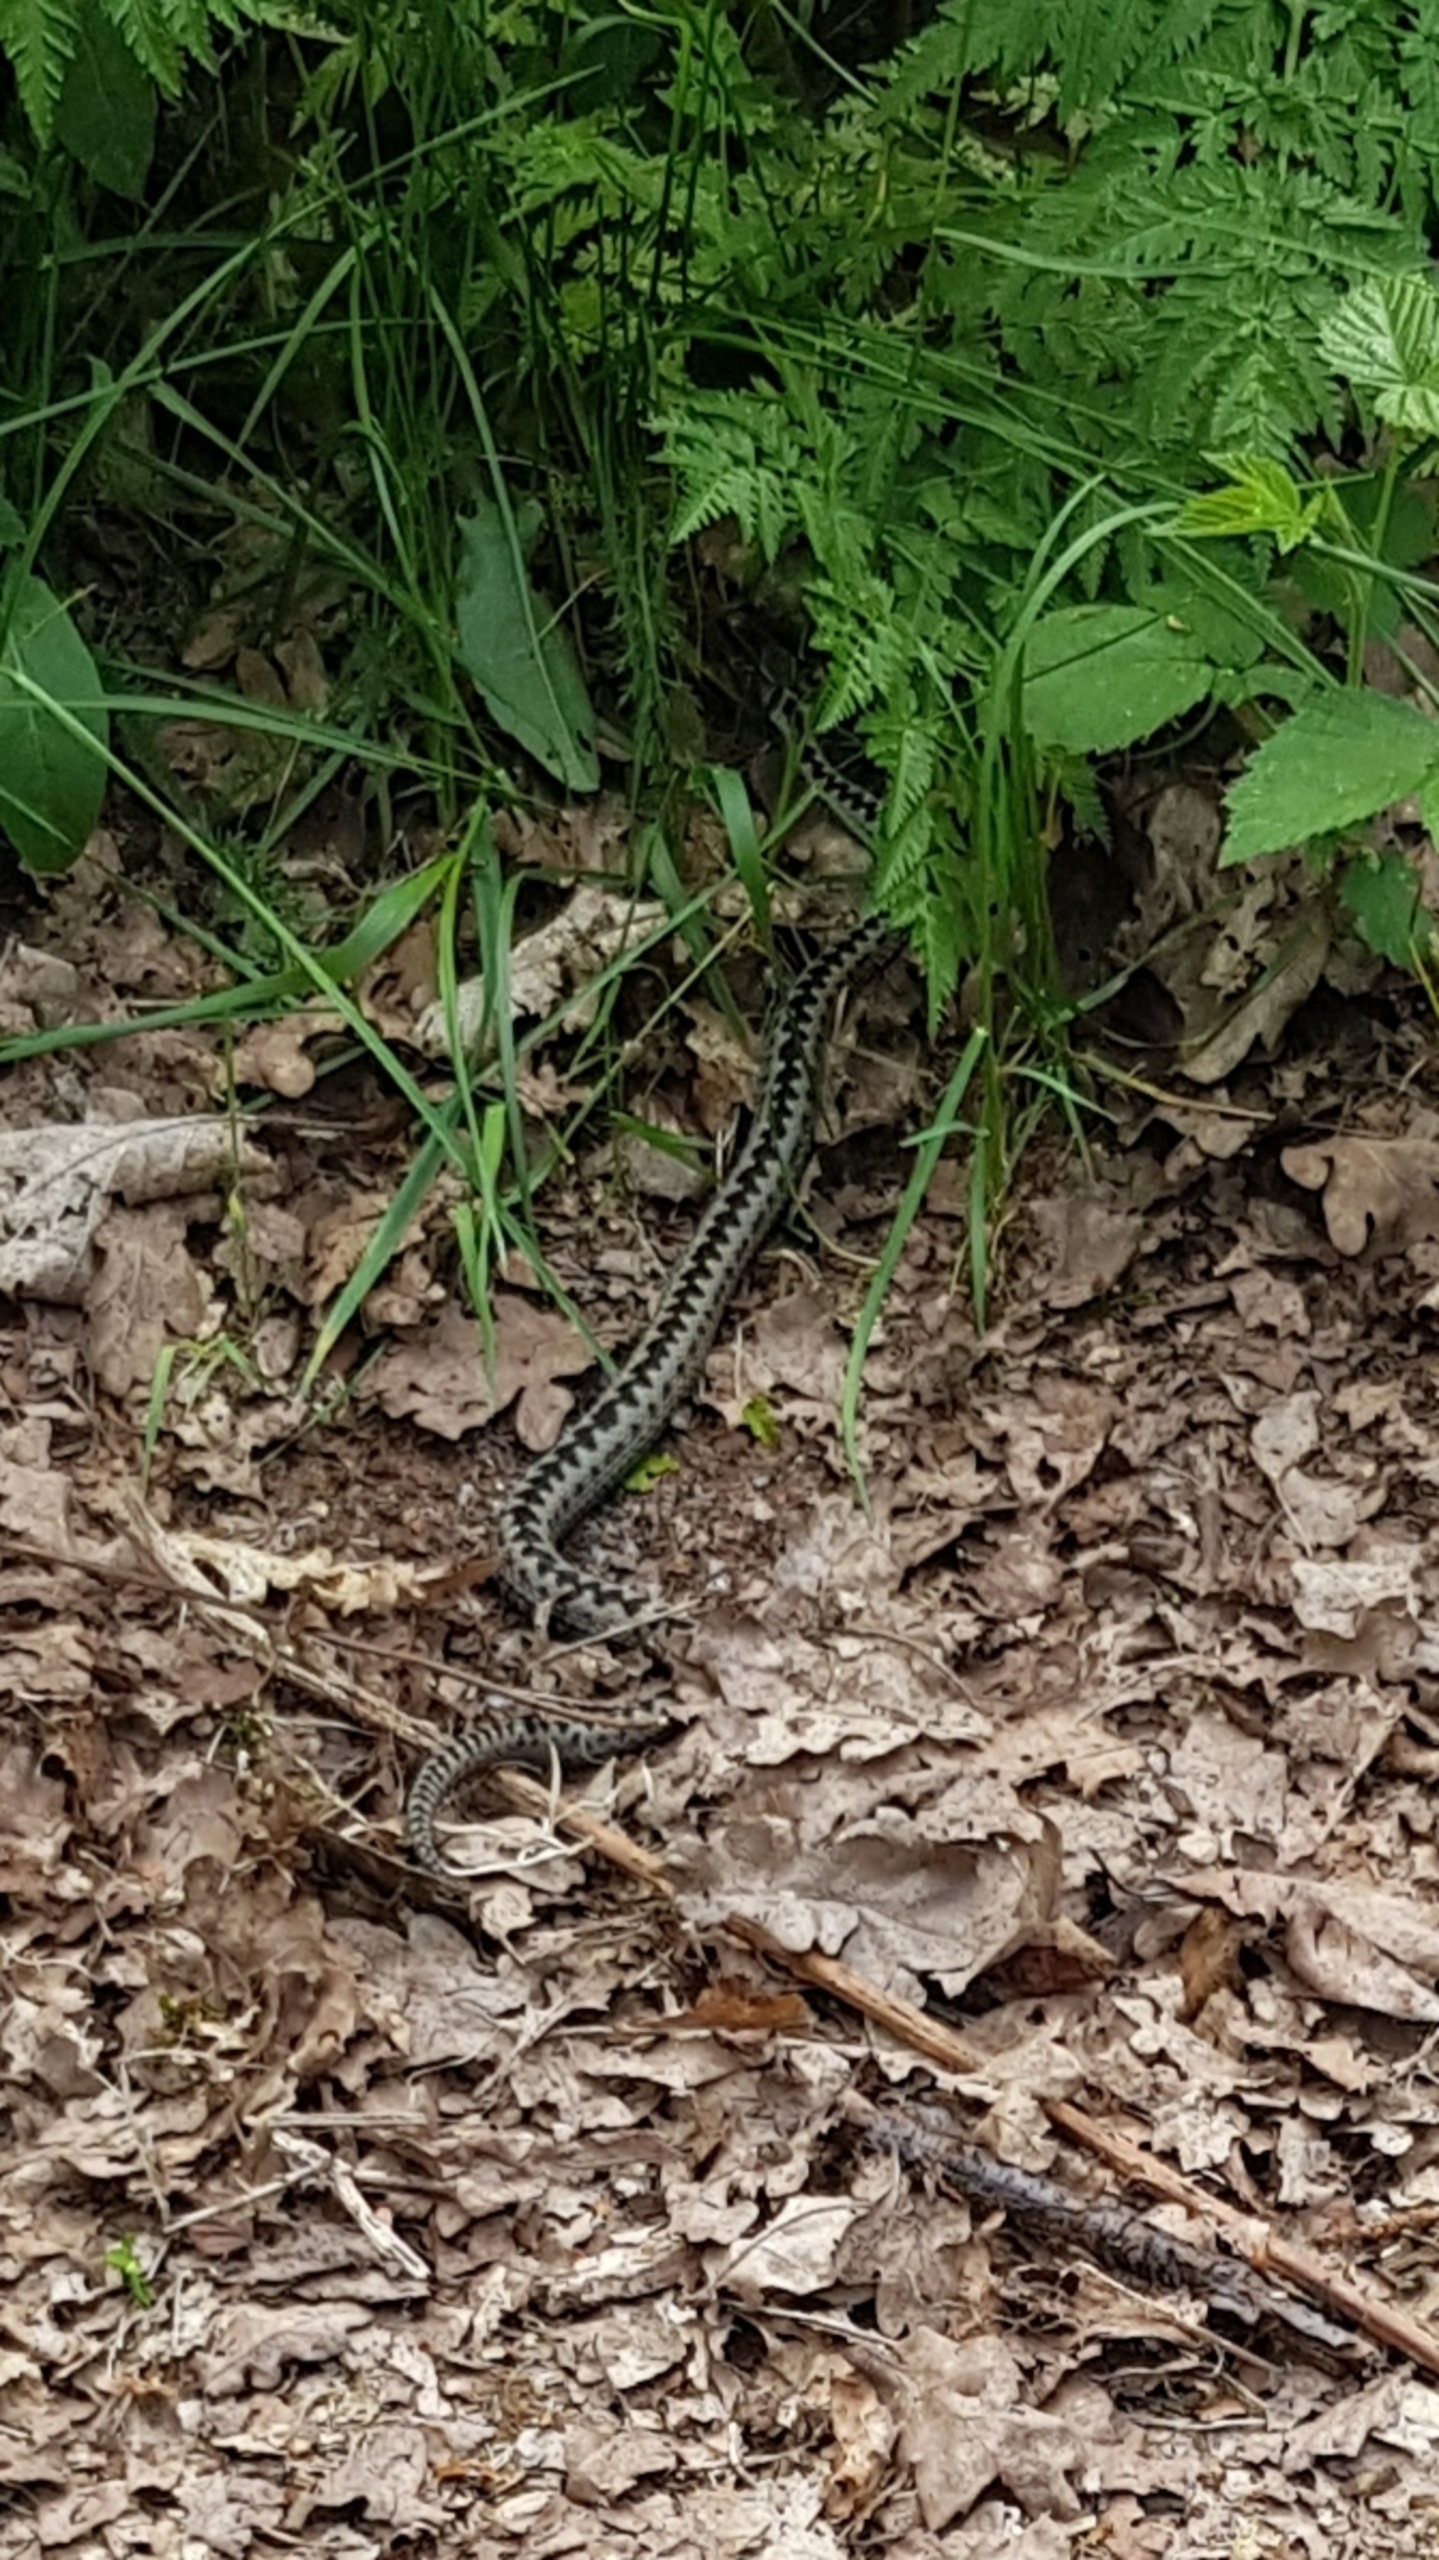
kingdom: Animalia
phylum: Chordata
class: Squamata
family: Viperidae
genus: Vipera
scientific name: Vipera berus
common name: Hugorm
